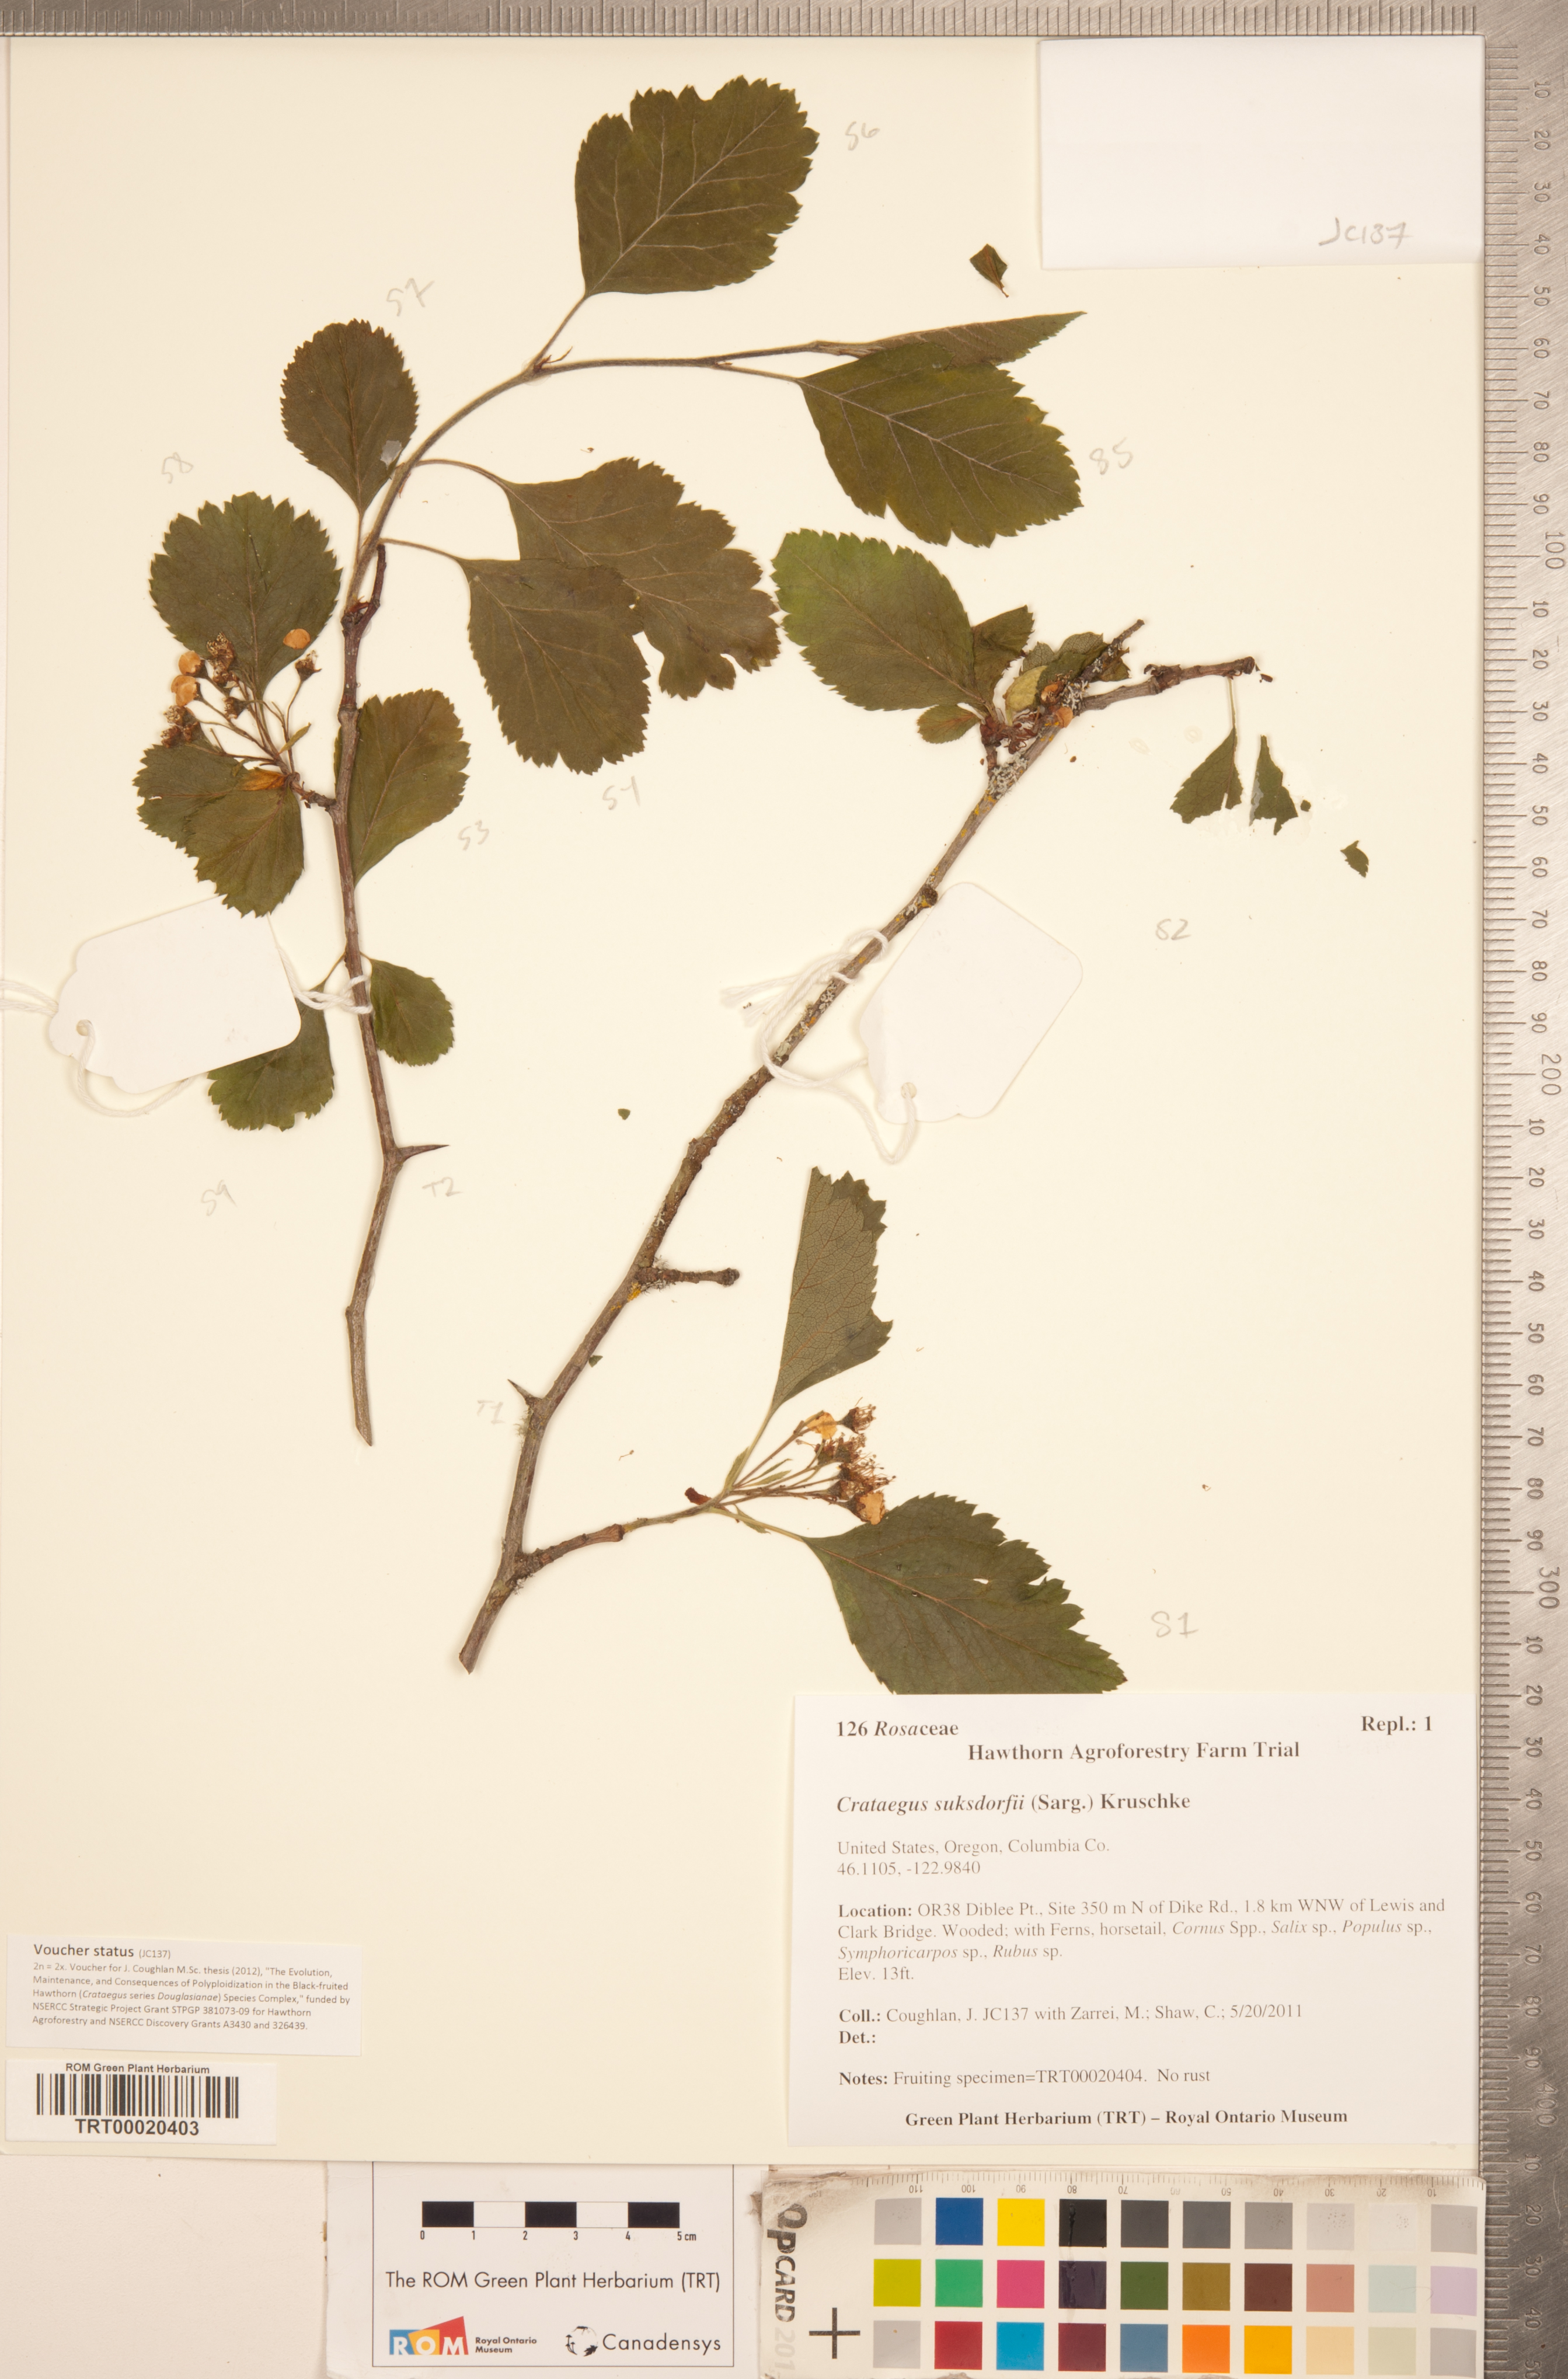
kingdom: Plantae
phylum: Tracheophyta
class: Magnoliopsida
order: Rosales
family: Rosaceae
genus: Crataegus
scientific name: Crataegus gaylussacia
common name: Huckleberry hawthorn
